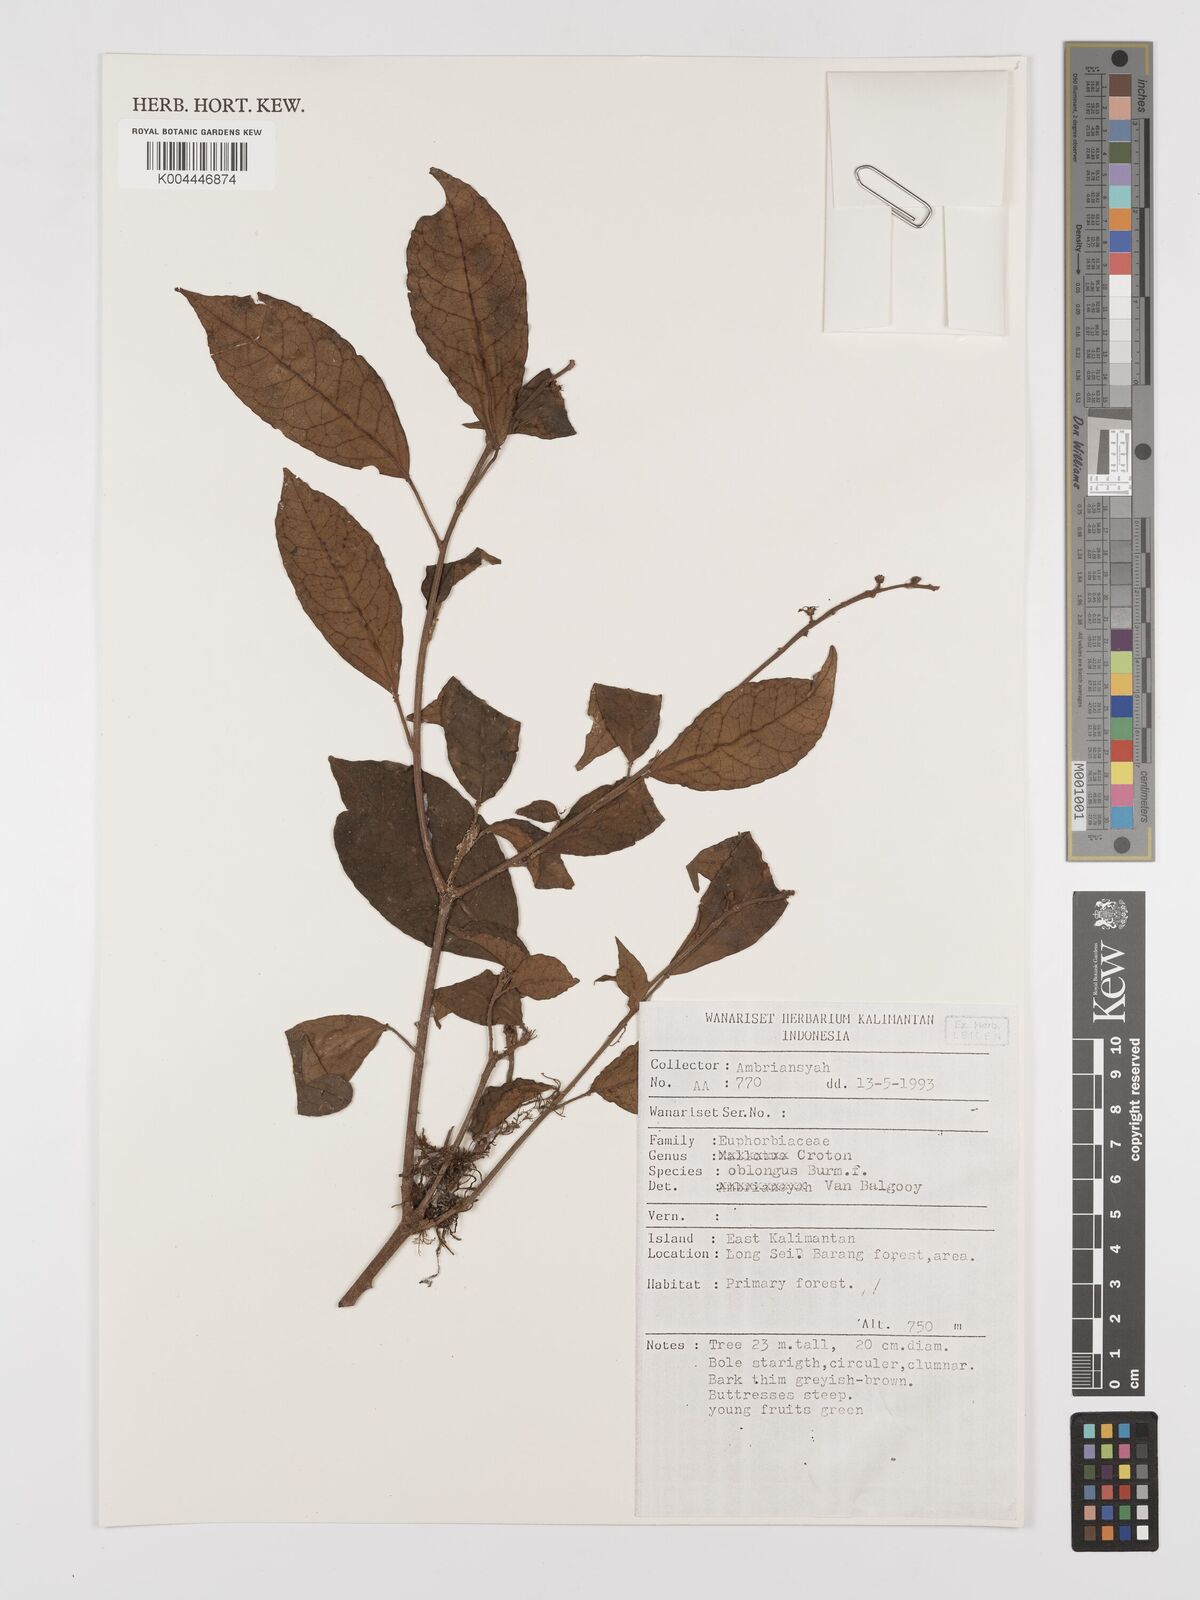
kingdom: Plantae
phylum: Tracheophyta
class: Magnoliopsida
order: Malpighiales
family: Euphorbiaceae
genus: Croton
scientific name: Croton oblongus
